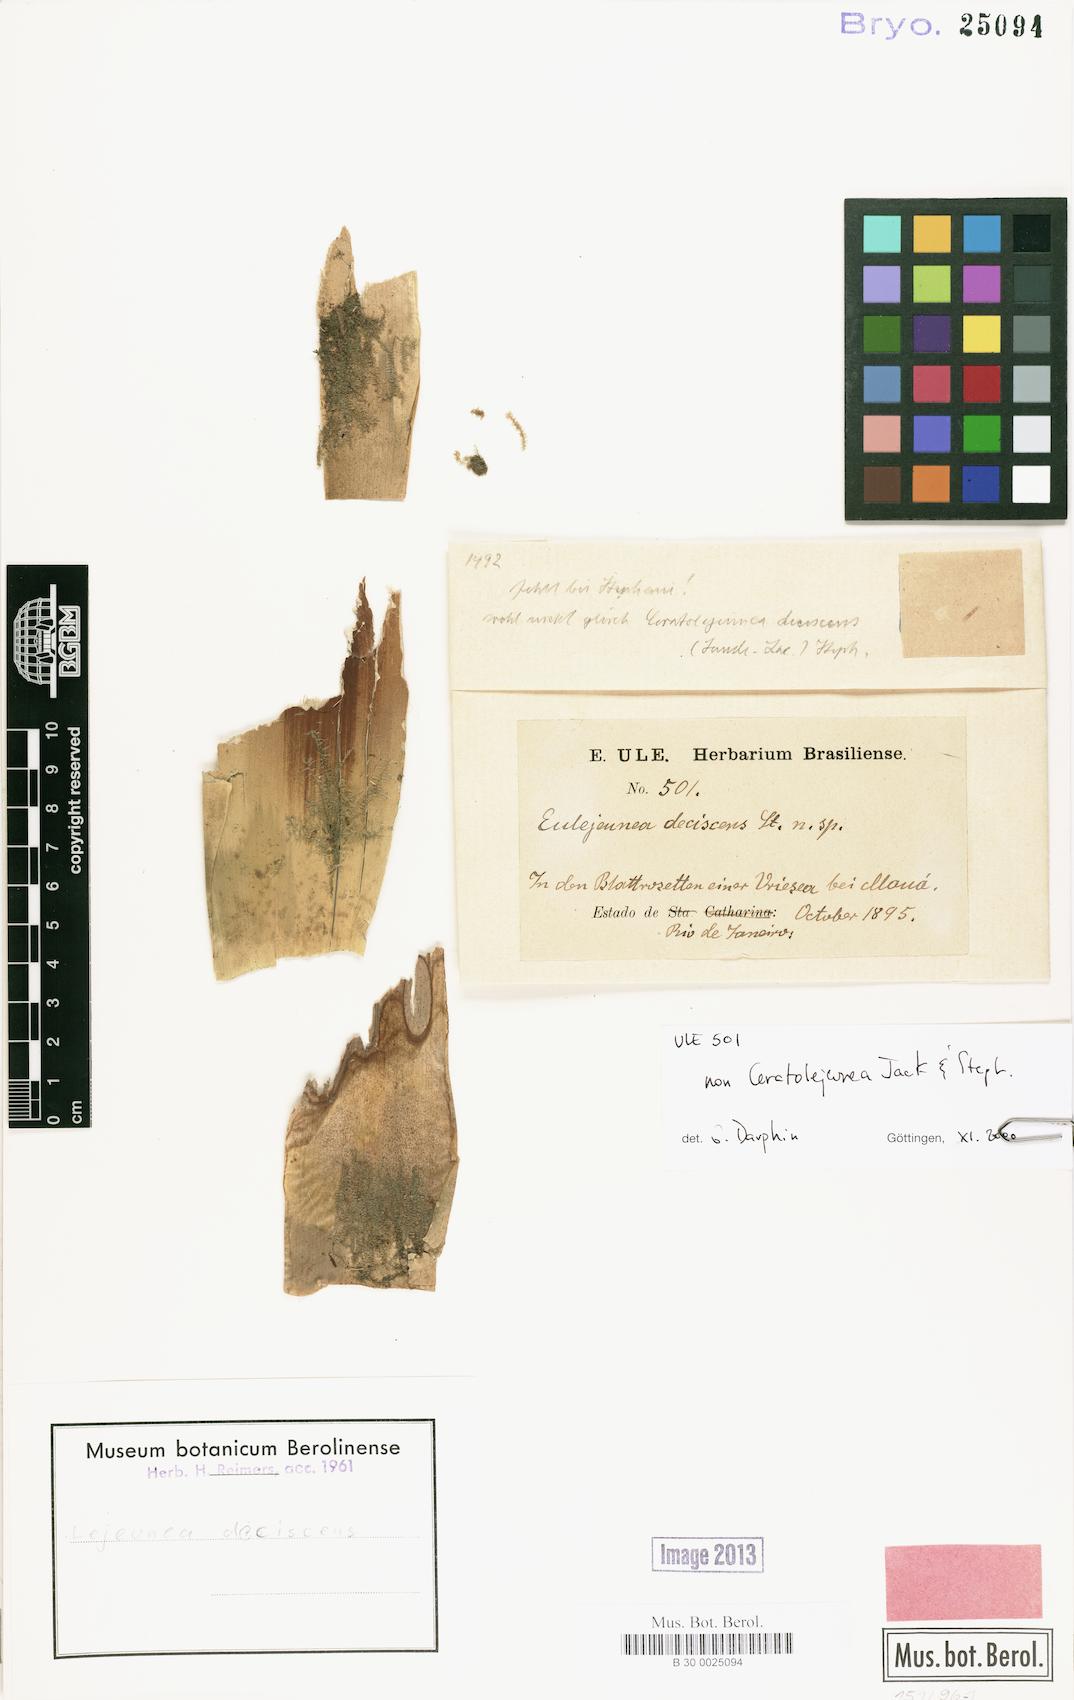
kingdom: Plantae
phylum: Marchantiophyta
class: Jungermanniopsida
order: Porellales
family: Lejeuneaceae
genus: Lejeunea
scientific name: Lejeunea
